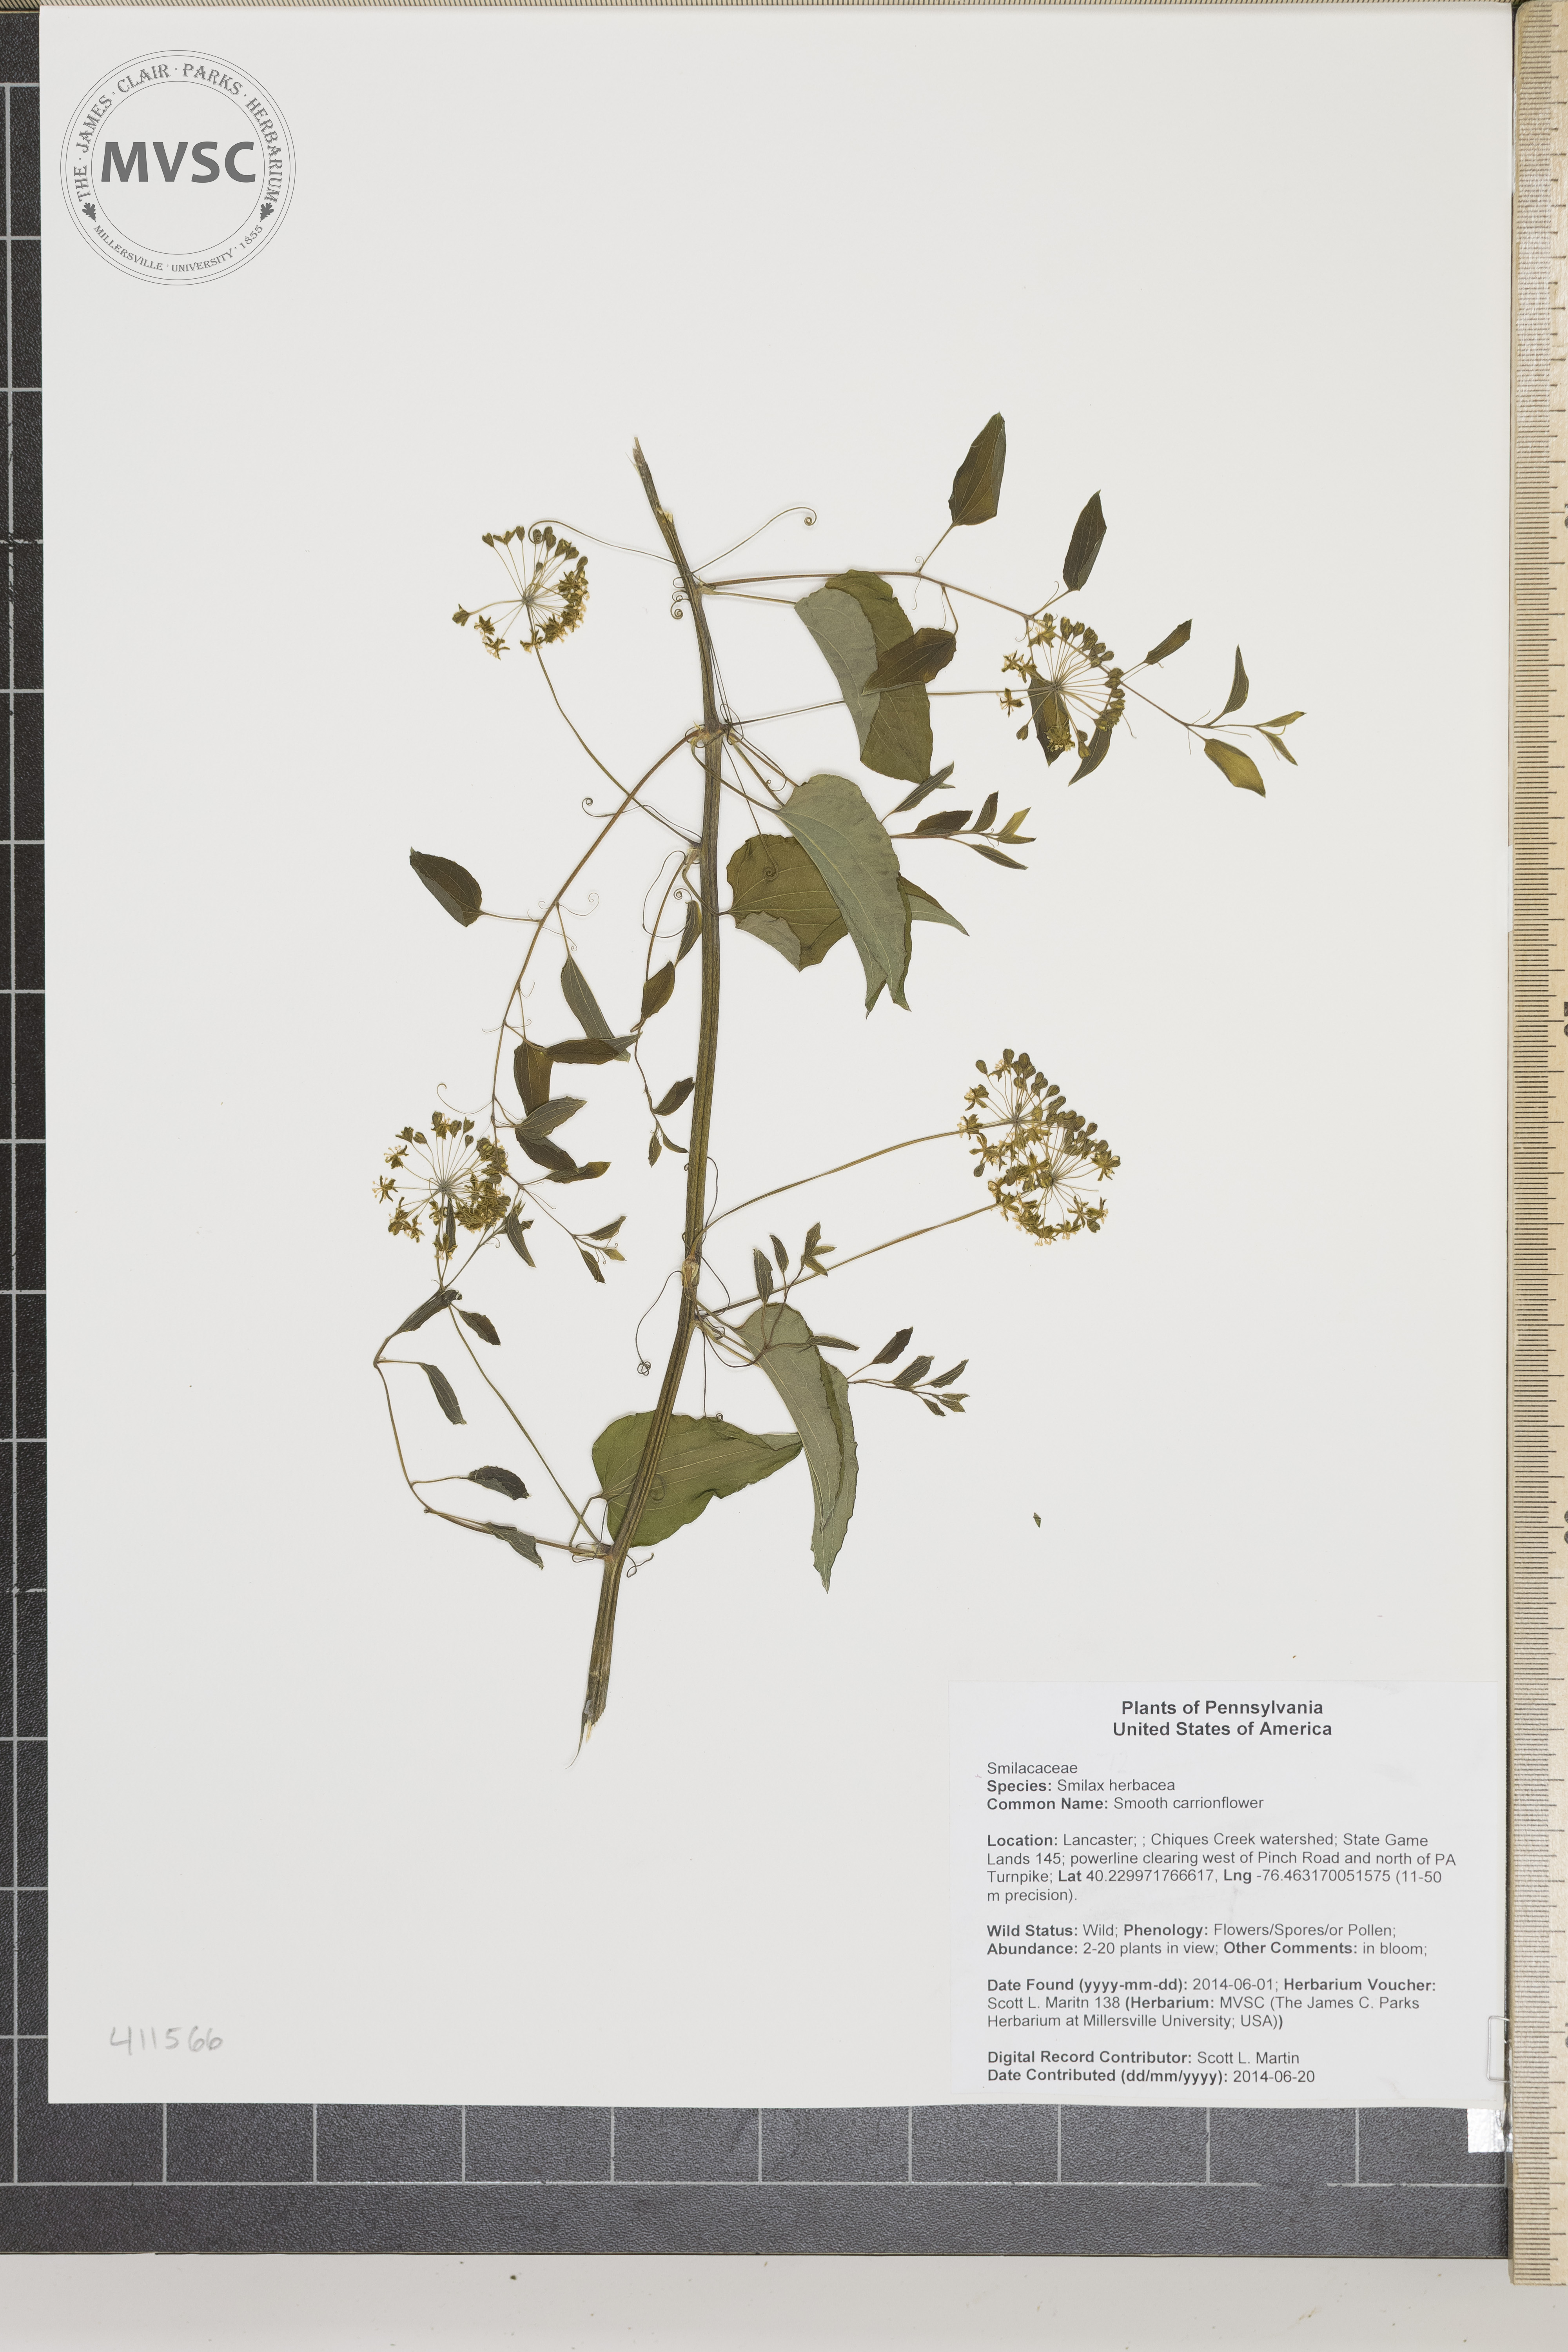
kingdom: Plantae
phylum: Tracheophyta
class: Liliopsida
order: Liliales
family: Smilacaceae
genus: Smilax
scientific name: Smilax herbacea
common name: Smooth carrionflower
